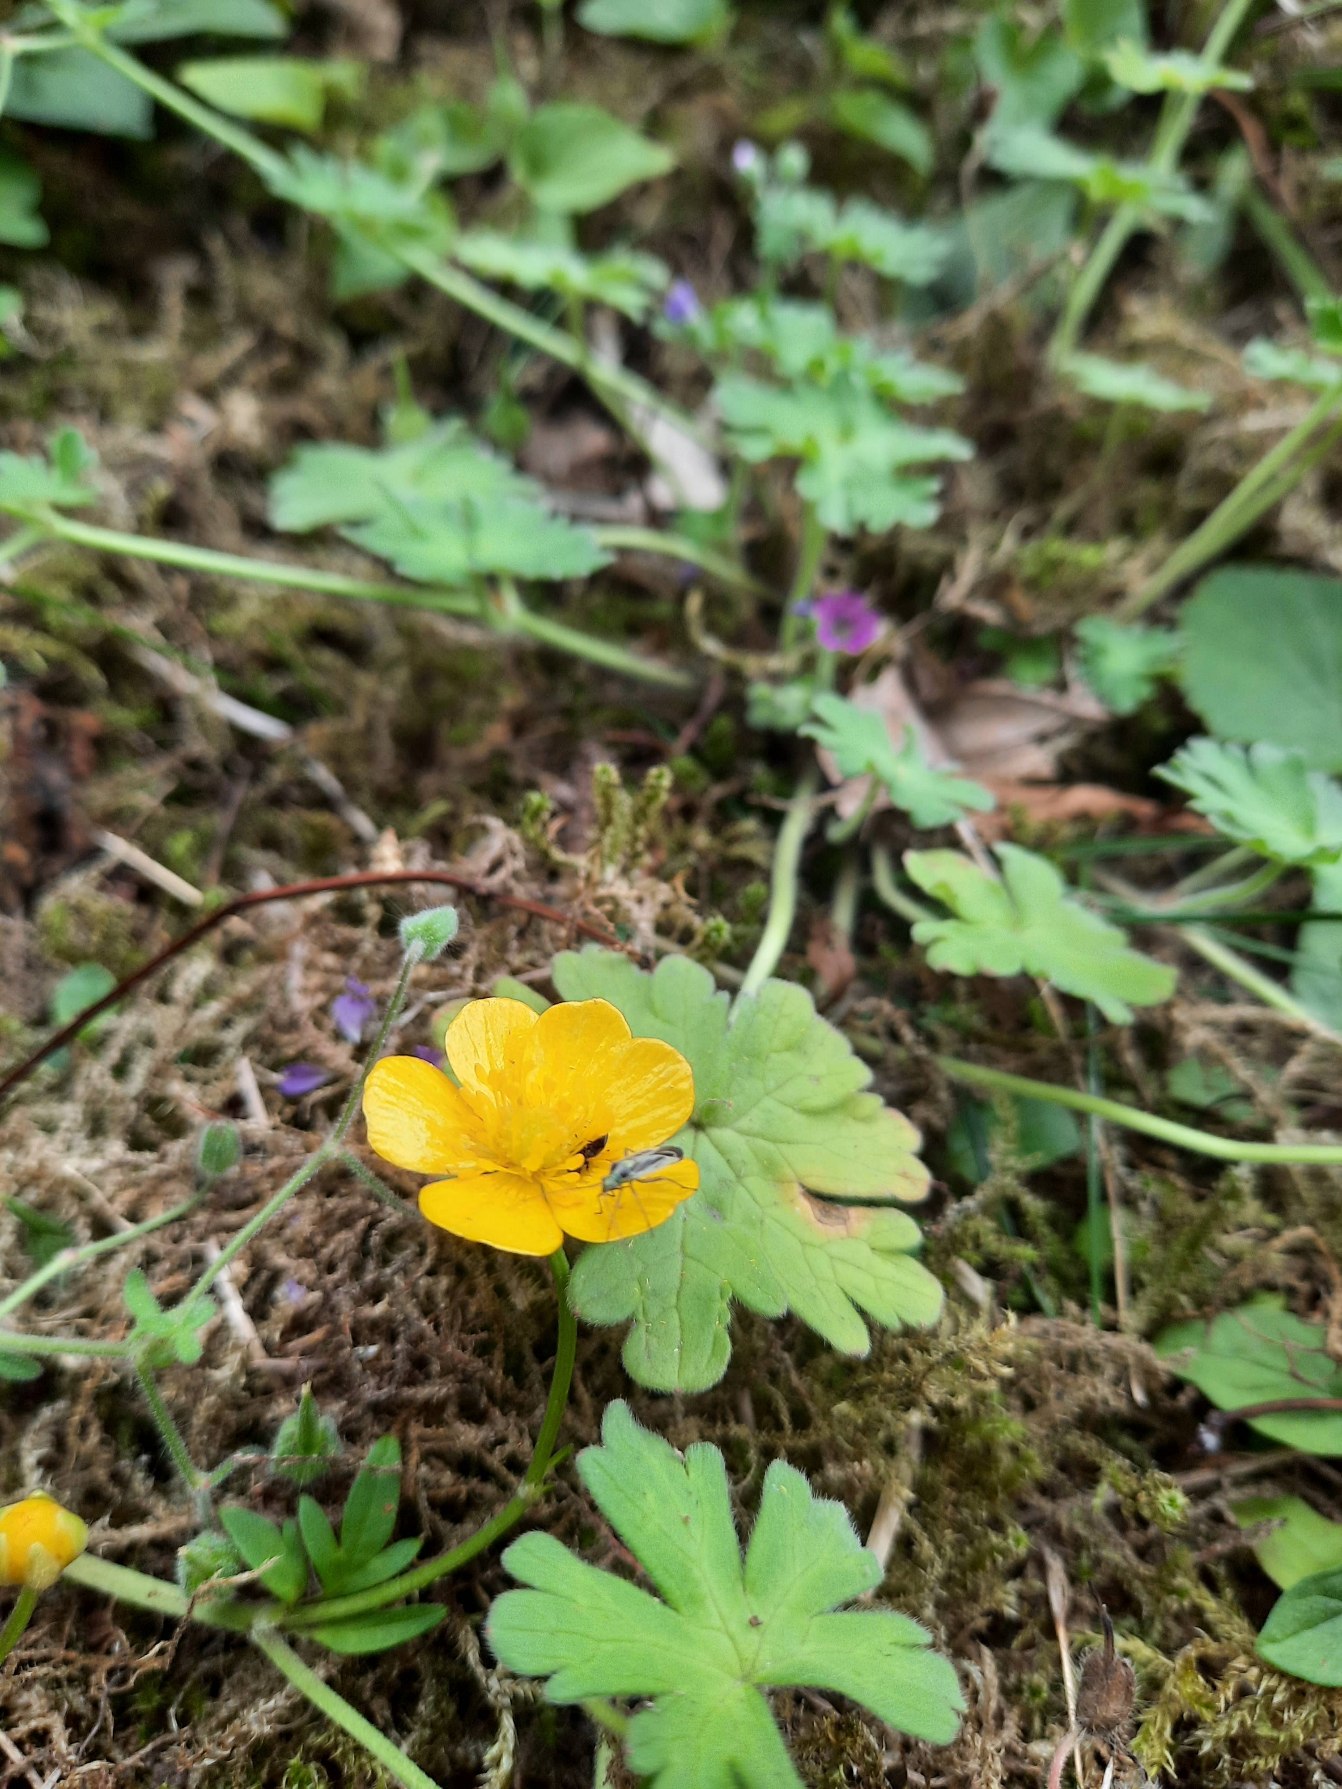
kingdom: Plantae
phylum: Tracheophyta
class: Magnoliopsida
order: Ranunculales
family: Ranunculaceae
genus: Ranunculus
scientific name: Ranunculus
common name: Ranunkelslægten
